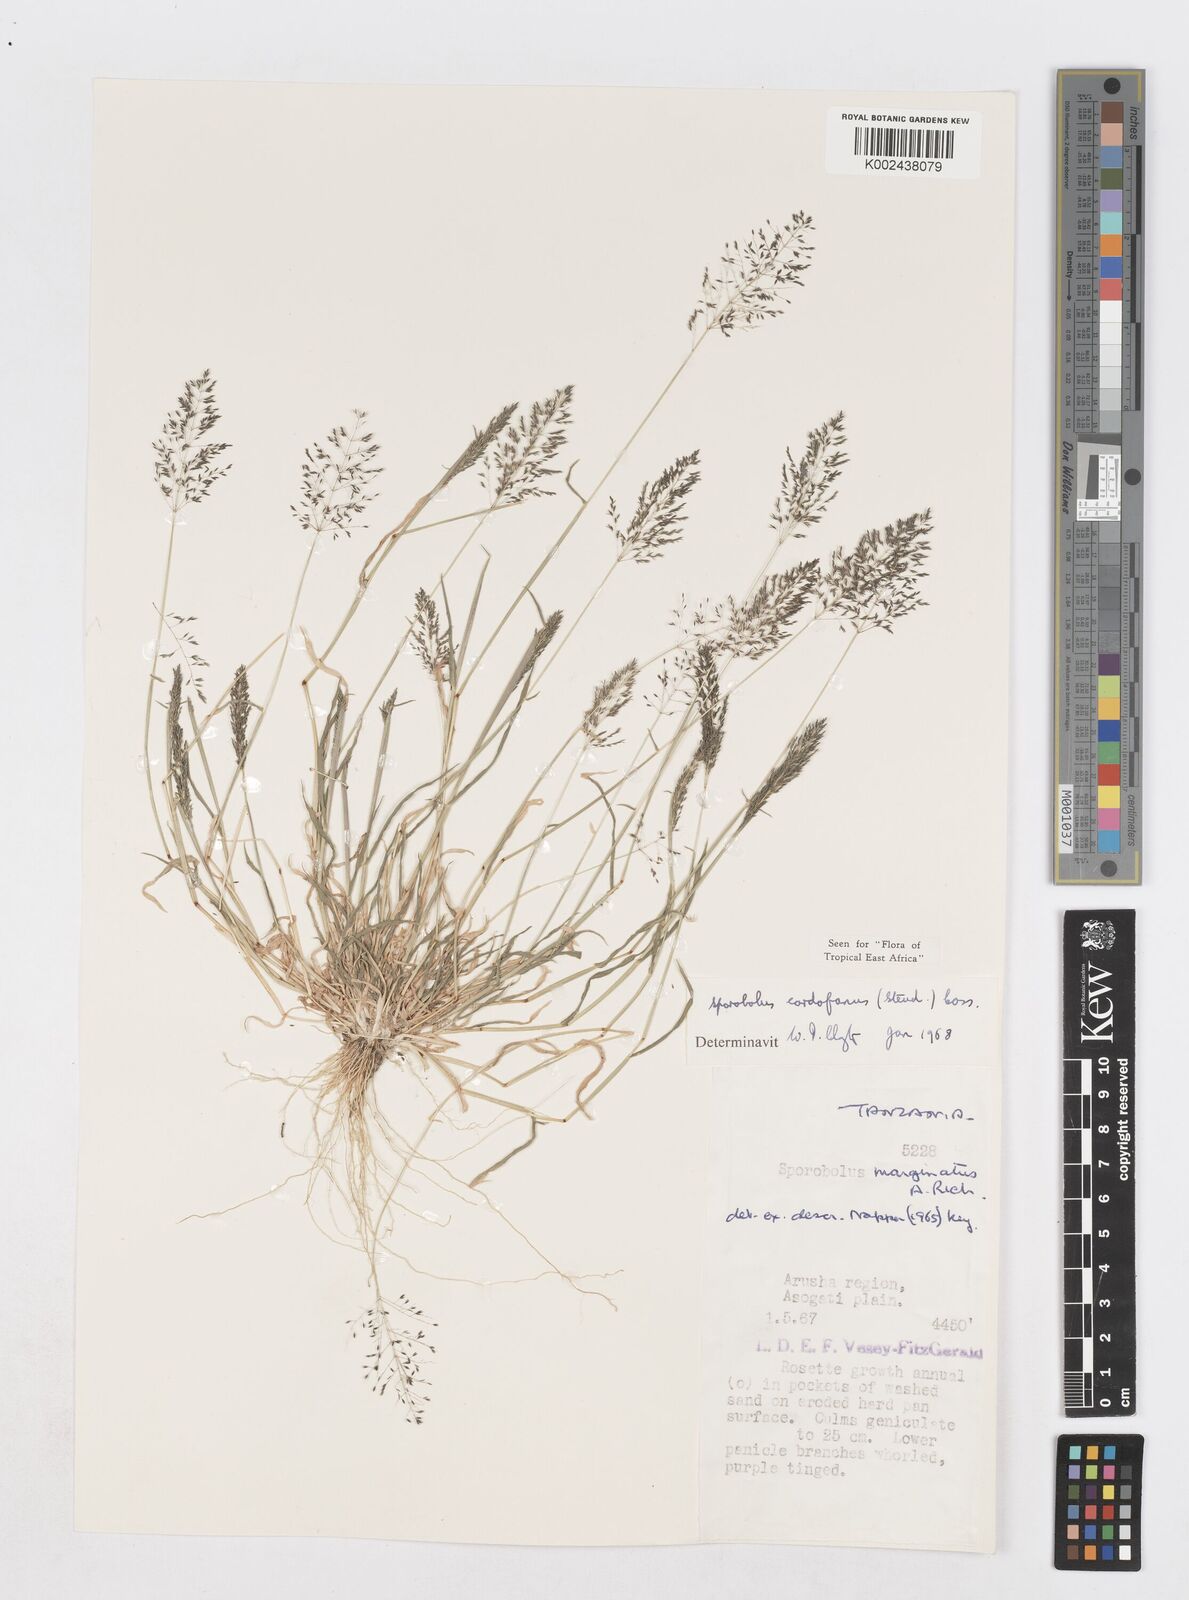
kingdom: Plantae
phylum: Tracheophyta
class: Liliopsida
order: Poales
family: Poaceae
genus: Sporobolus
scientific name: Sporobolus cordofanus
